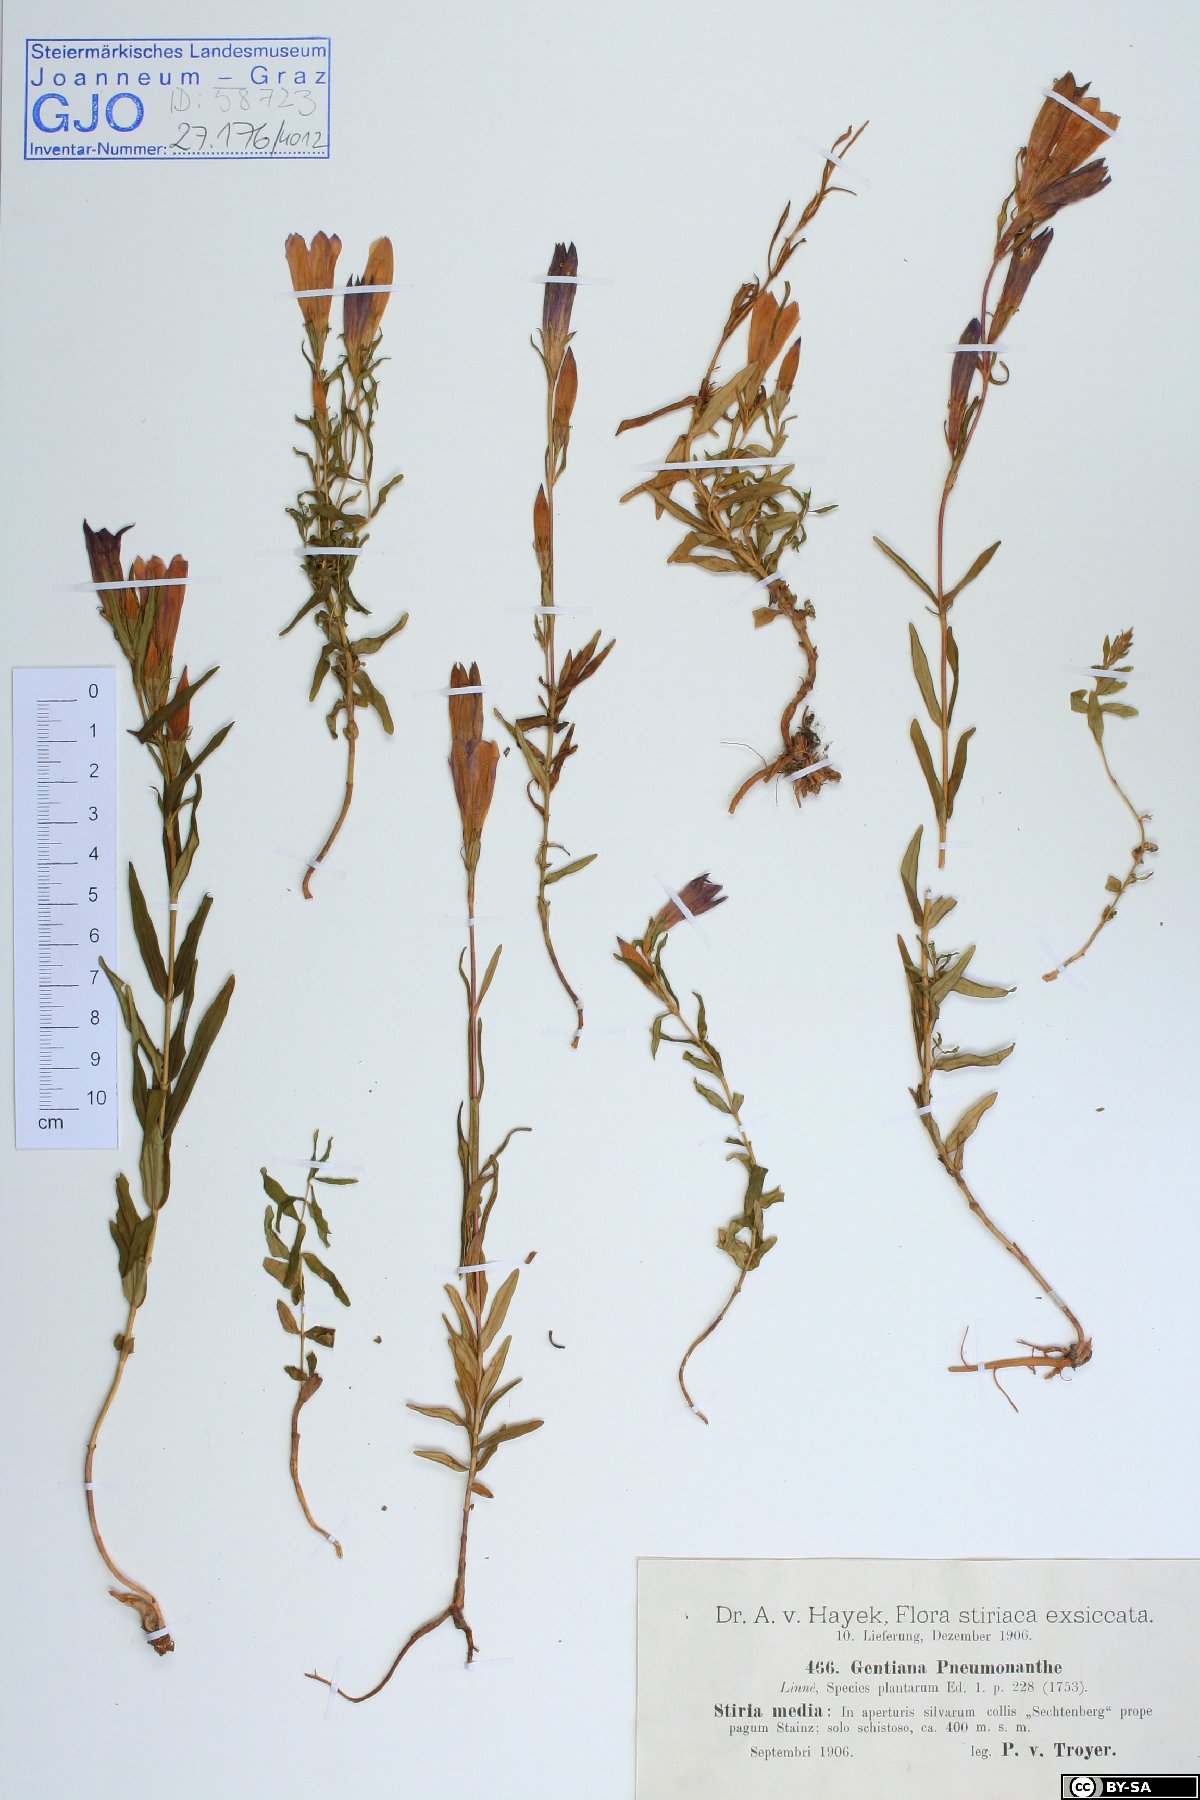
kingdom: Plantae
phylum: Tracheophyta
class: Magnoliopsida
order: Gentianales
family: Gentianaceae
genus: Gentiana
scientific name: Gentiana pneumonanthe
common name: Marsh gentian
